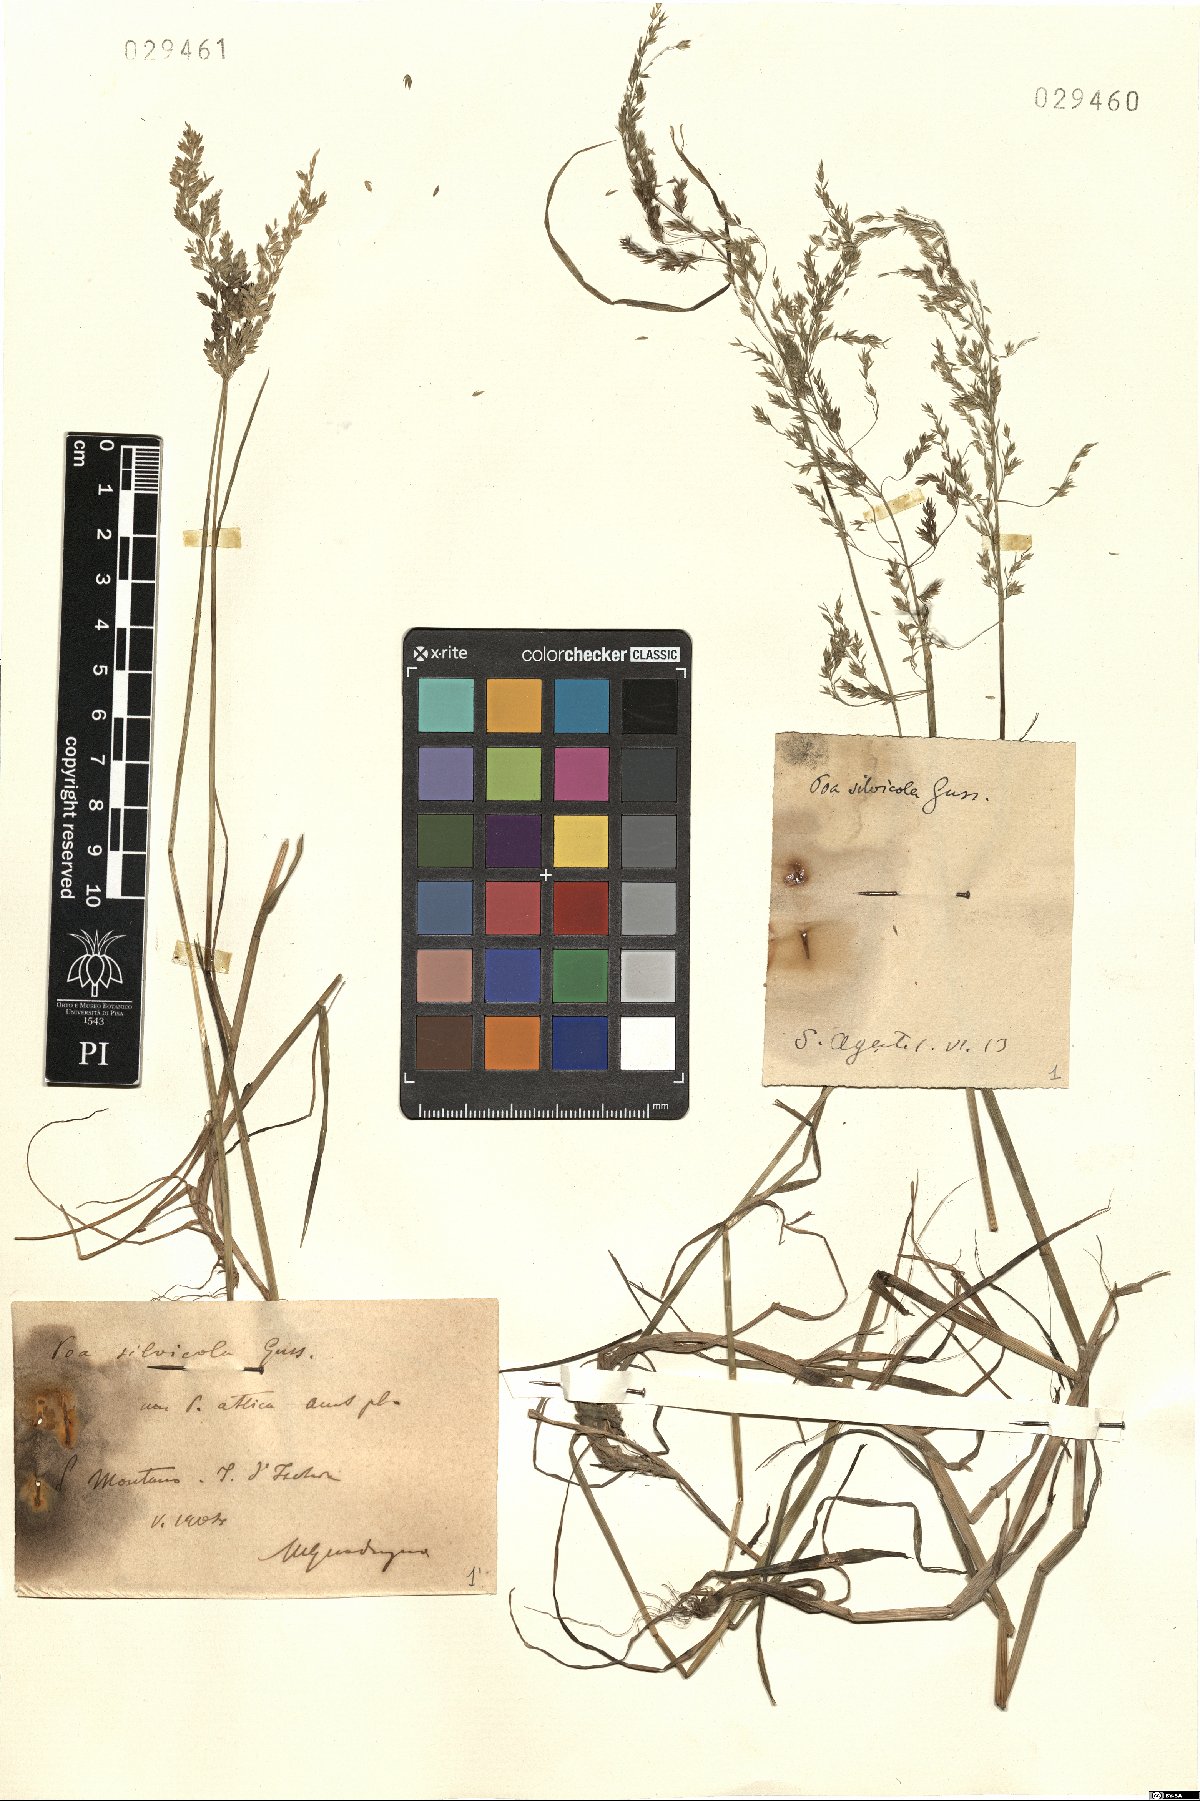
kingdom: Plantae
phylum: Tracheophyta
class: Liliopsida
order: Poales
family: Poaceae
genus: Poa
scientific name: Poa trivialis
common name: Rough bluegrass
